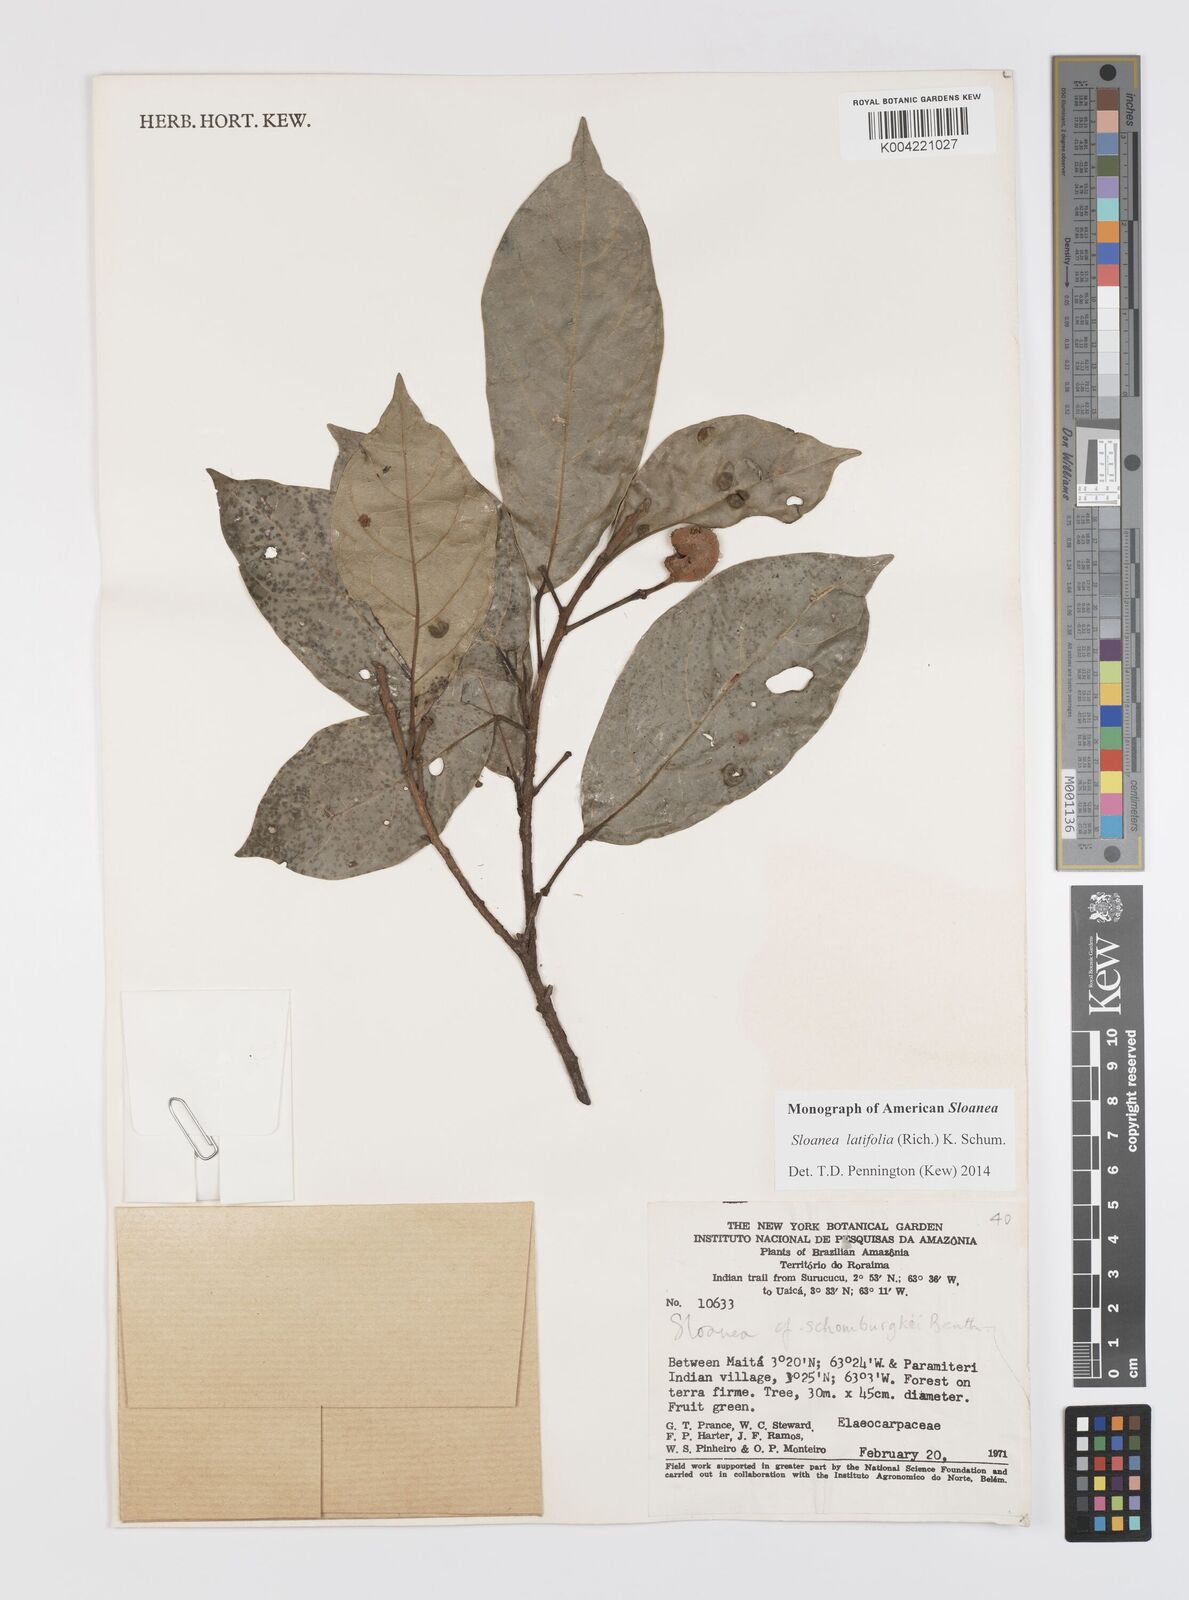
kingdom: Plantae
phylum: Tracheophyta
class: Magnoliopsida
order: Oxalidales
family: Elaeocarpaceae
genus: Sloanea
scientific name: Sloanea latifolia
